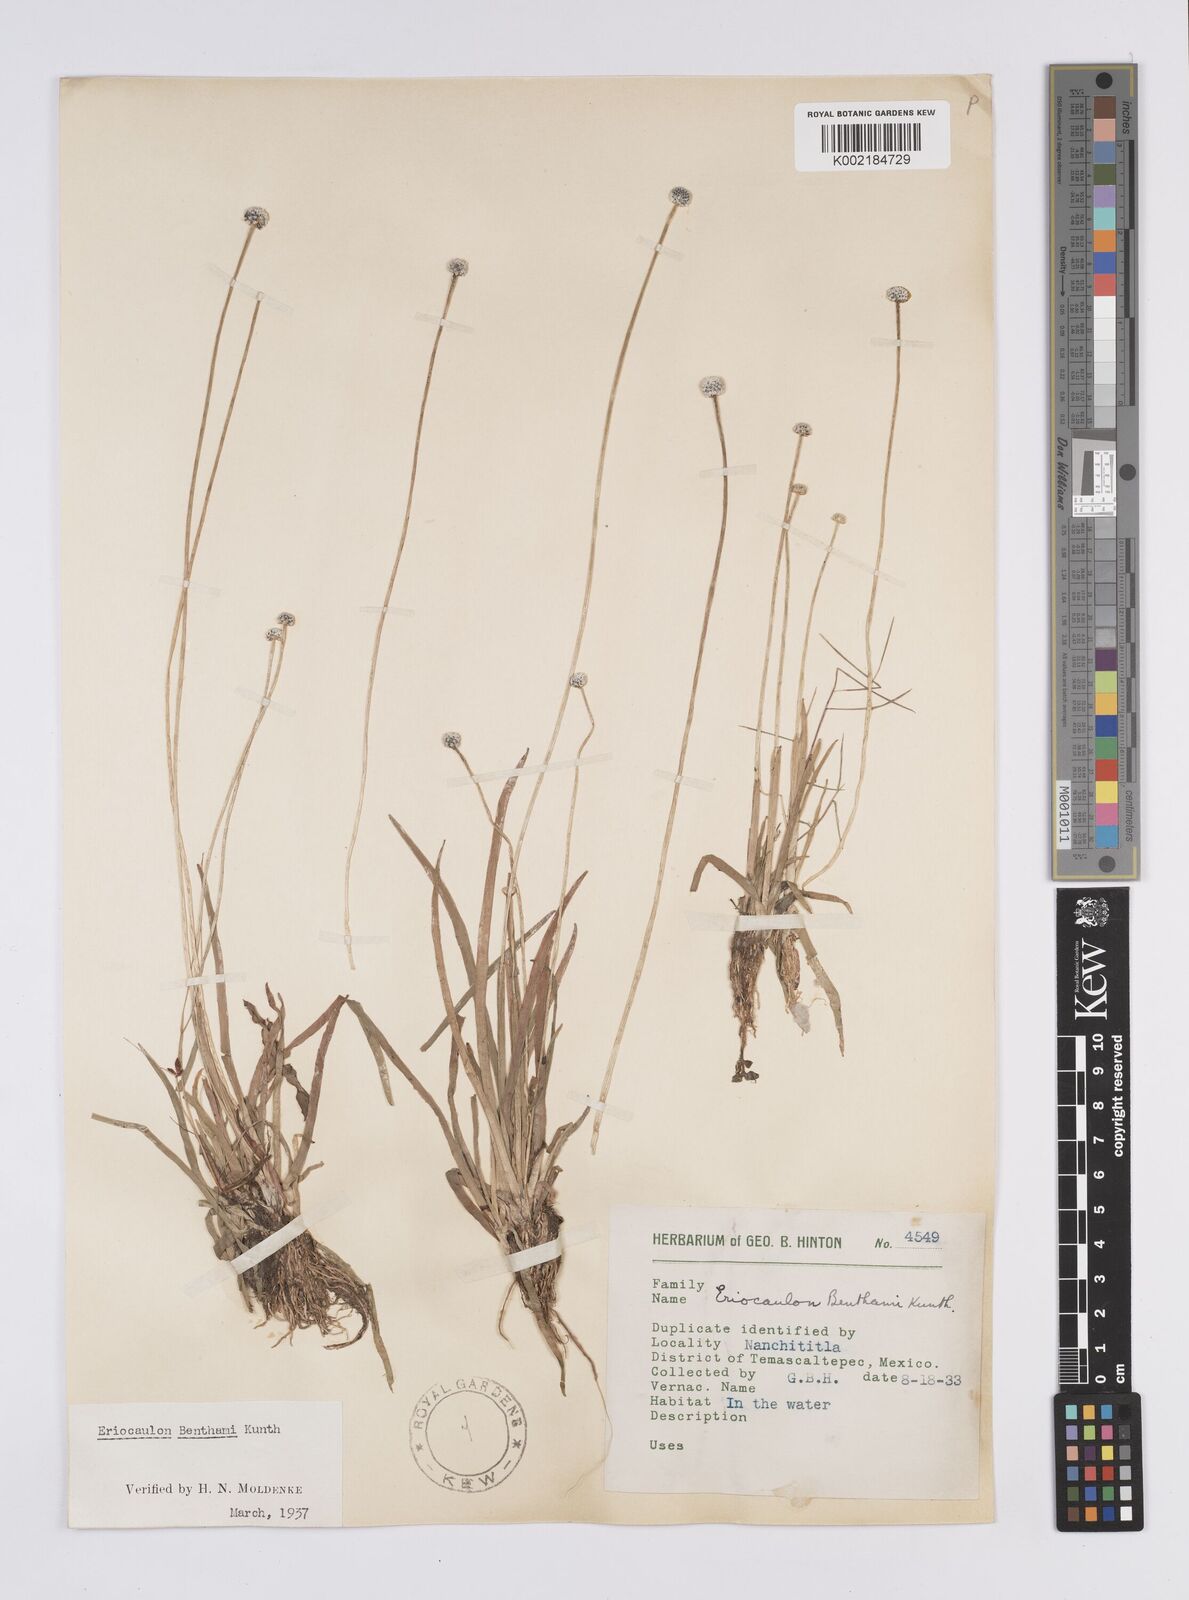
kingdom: Plantae
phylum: Tracheophyta
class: Liliopsida
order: Poales
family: Eriocaulaceae
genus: Eriocaulon
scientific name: Eriocaulon benthamii
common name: Bentham's pipewort
